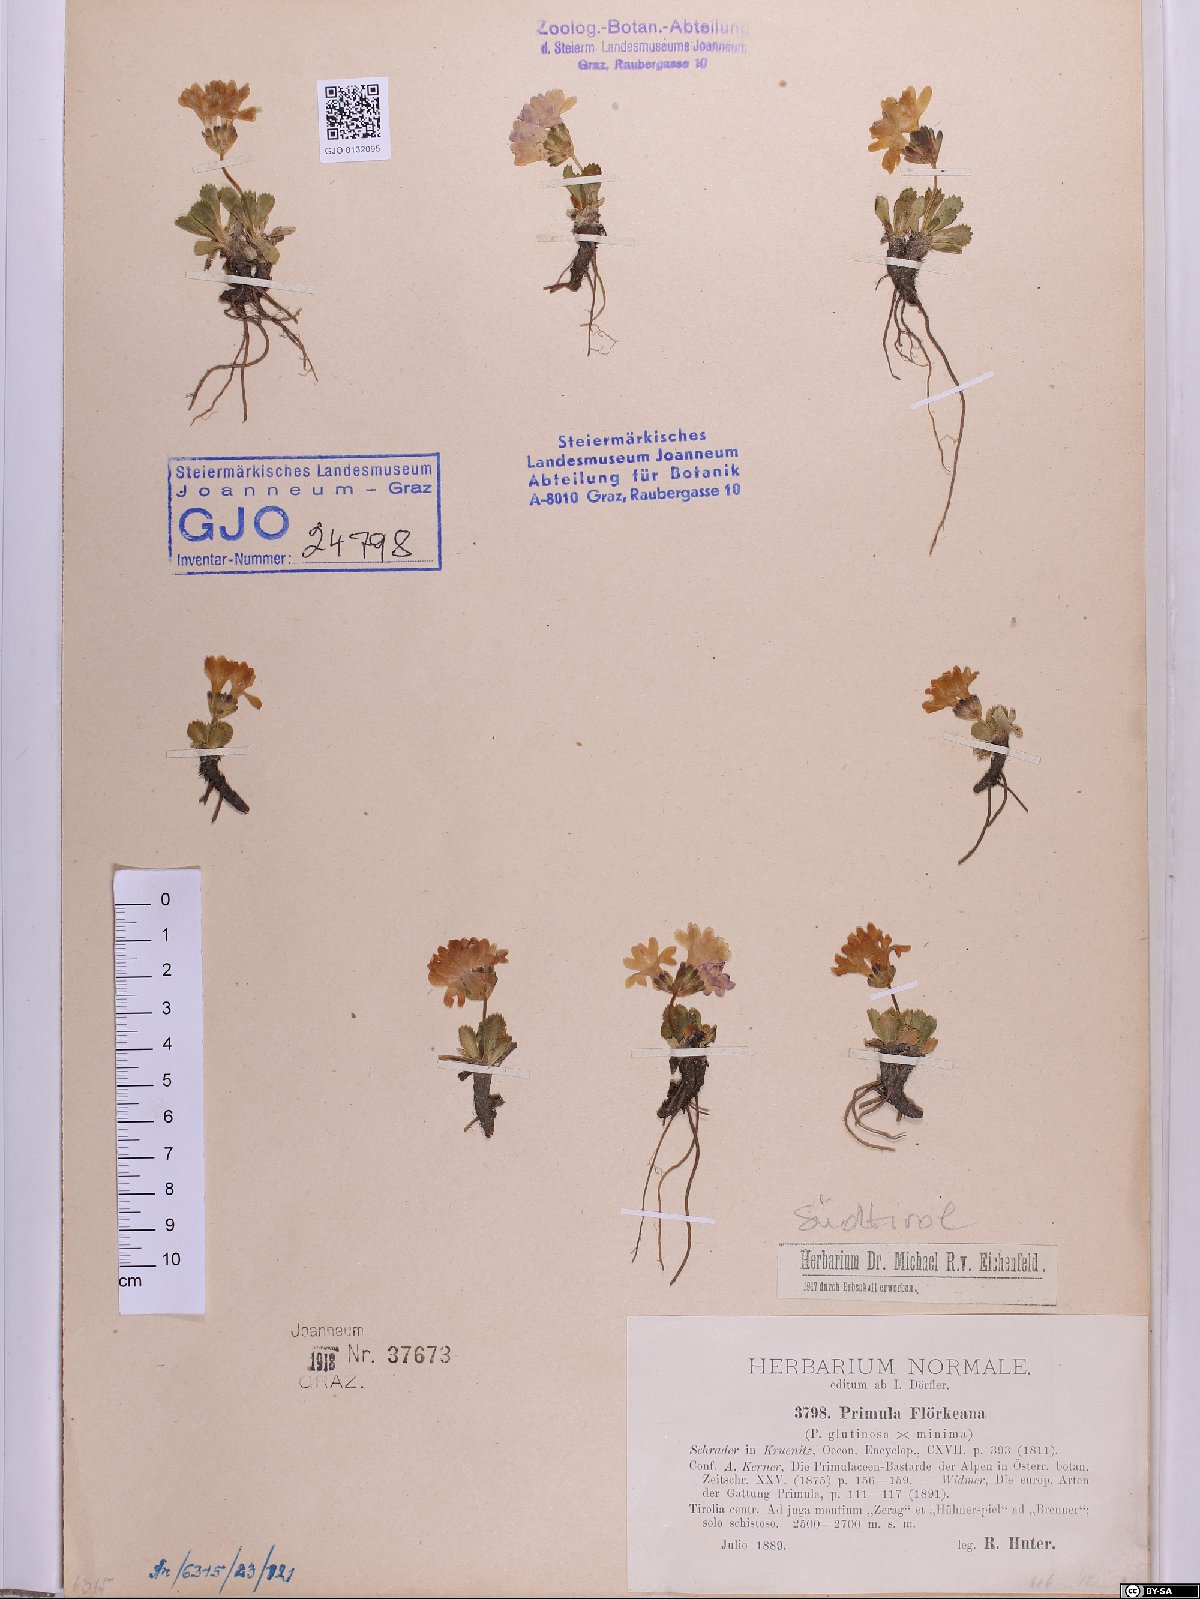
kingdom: Plantae
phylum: Tracheophyta
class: Magnoliopsida
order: Ericales
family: Primulaceae
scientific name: Primulaceae
